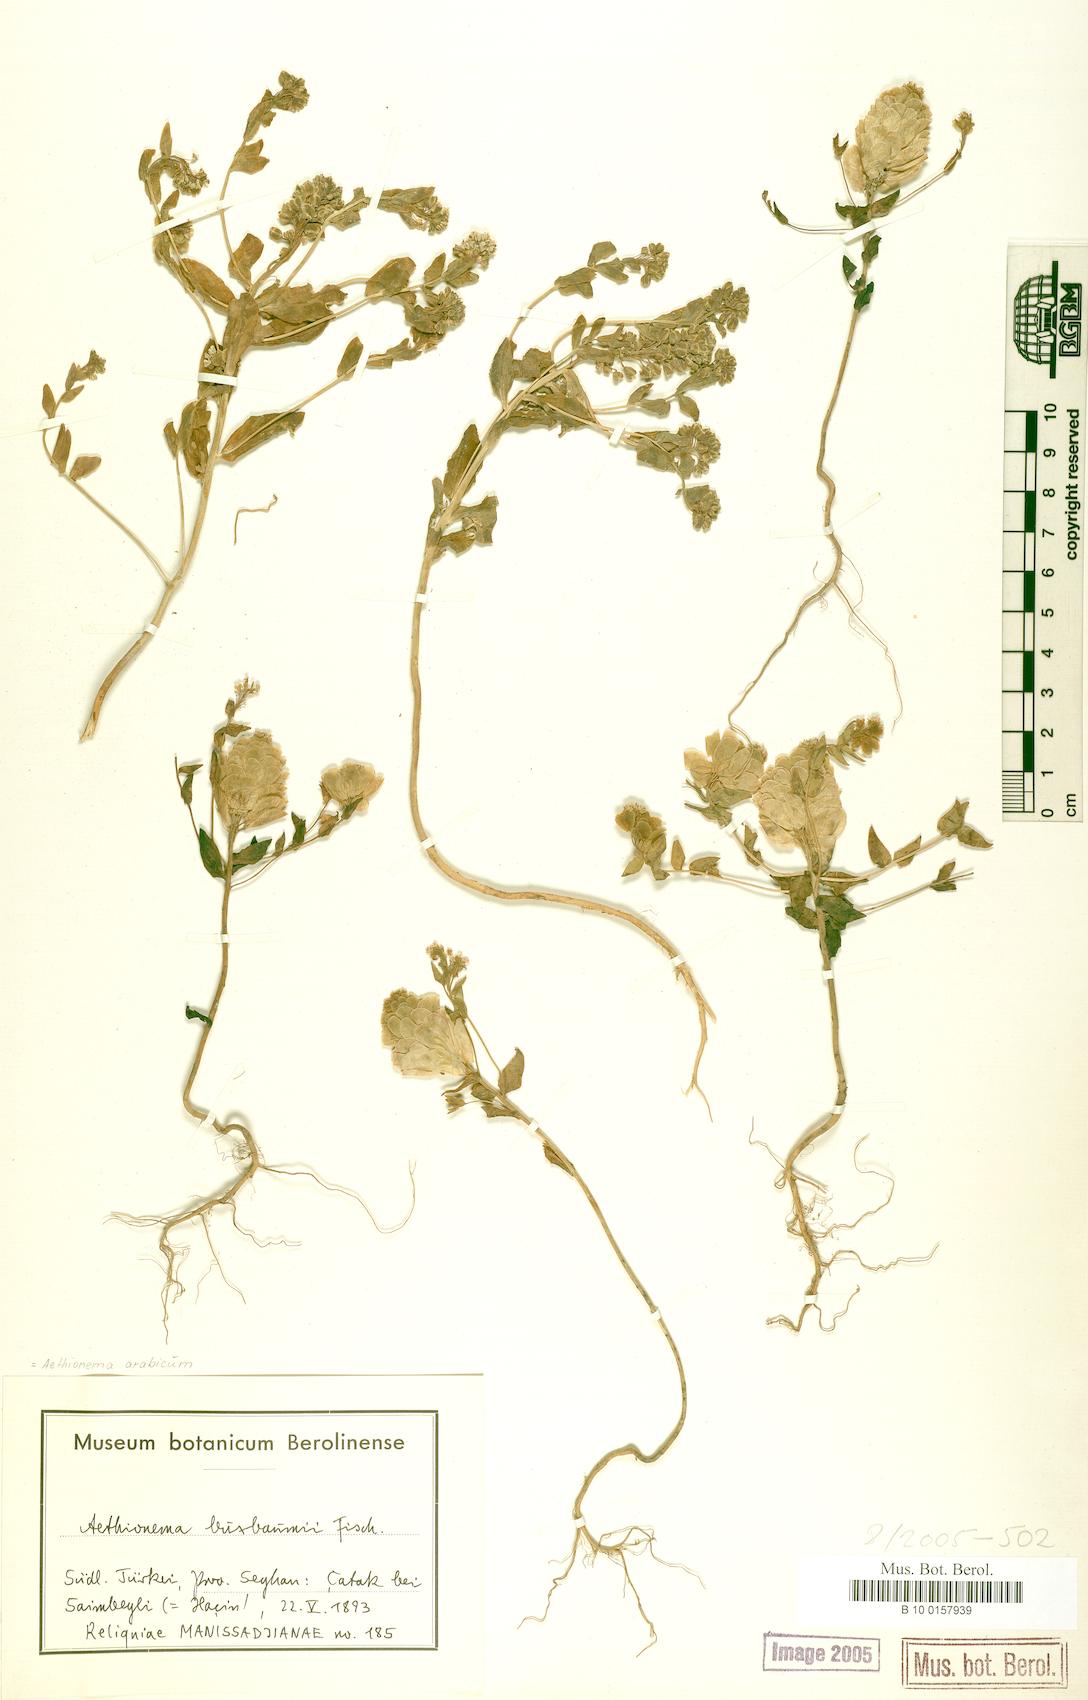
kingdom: Plantae
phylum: Tracheophyta
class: Magnoliopsida
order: Brassicales
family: Brassicaceae
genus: Aethionema
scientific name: Aethionema arabicum
